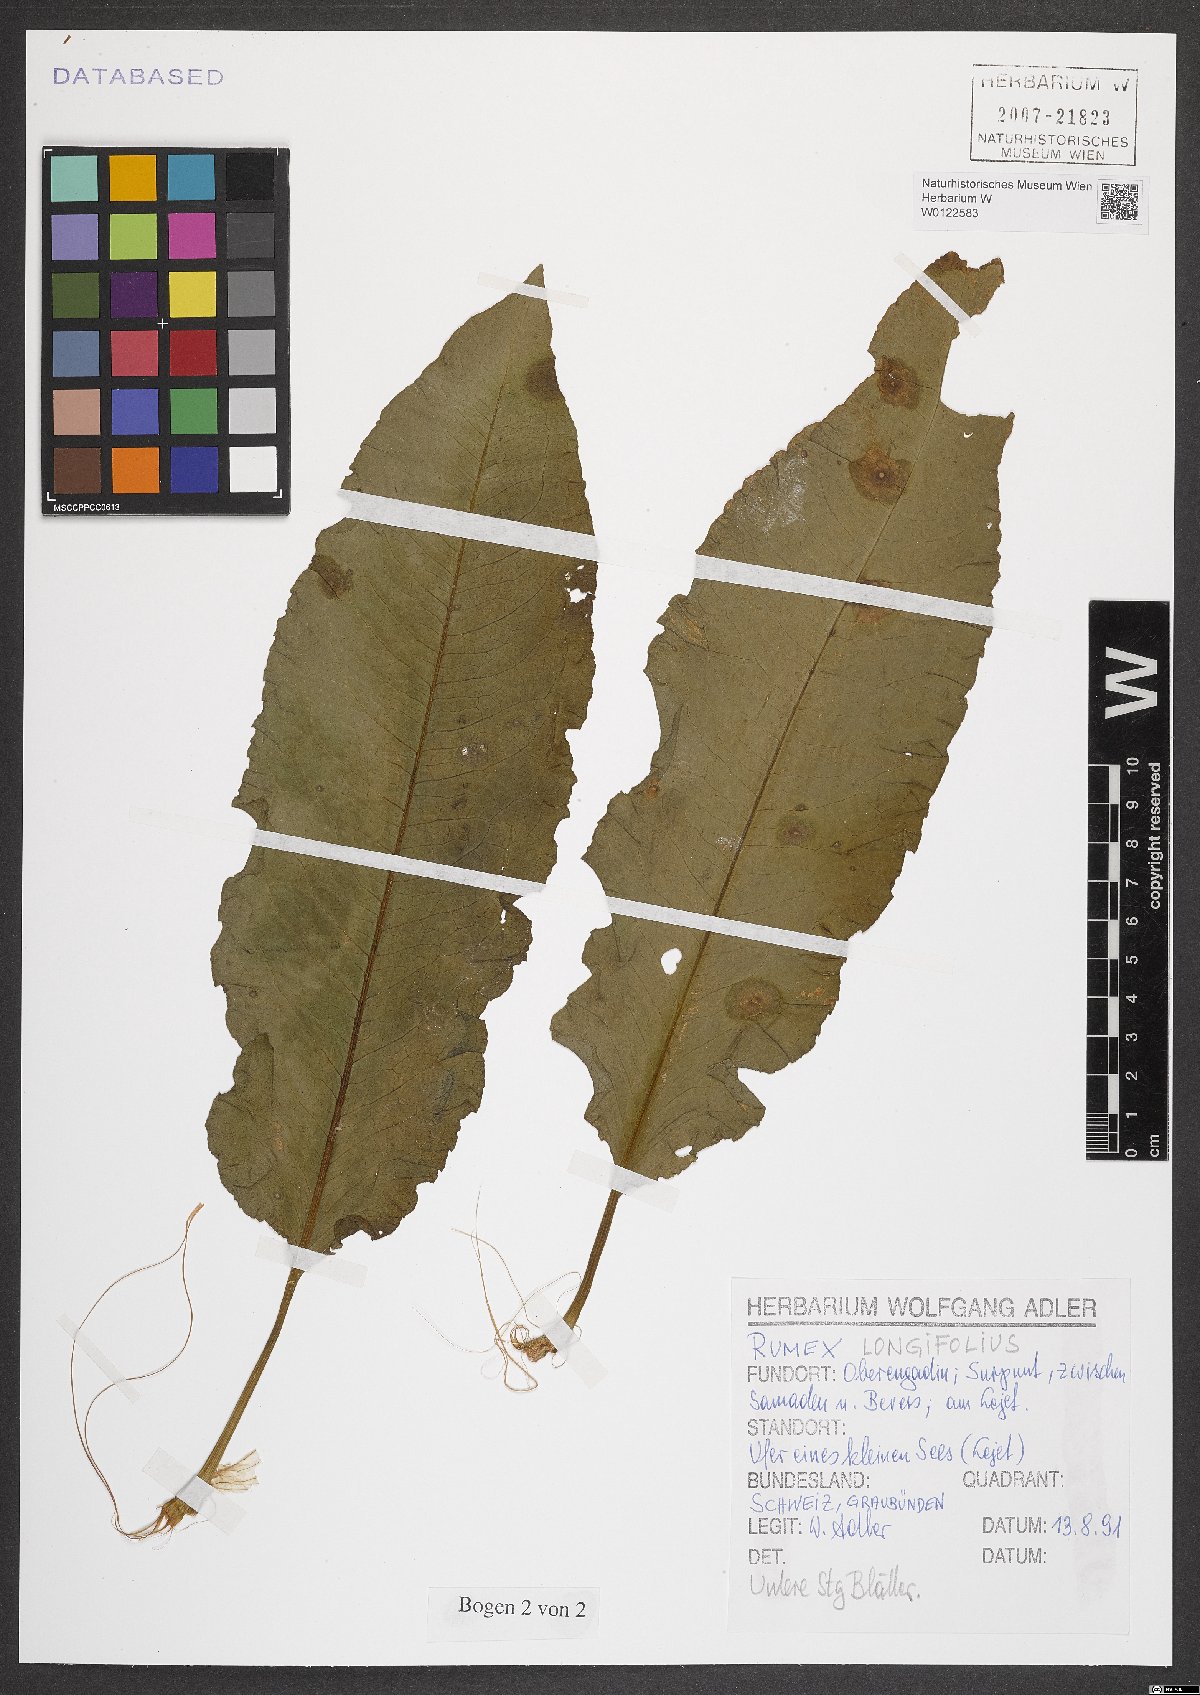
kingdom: Plantae
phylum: Tracheophyta
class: Magnoliopsida
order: Caryophyllales
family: Polygonaceae
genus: Rumex
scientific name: Rumex longifolius
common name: Dooryard dock
